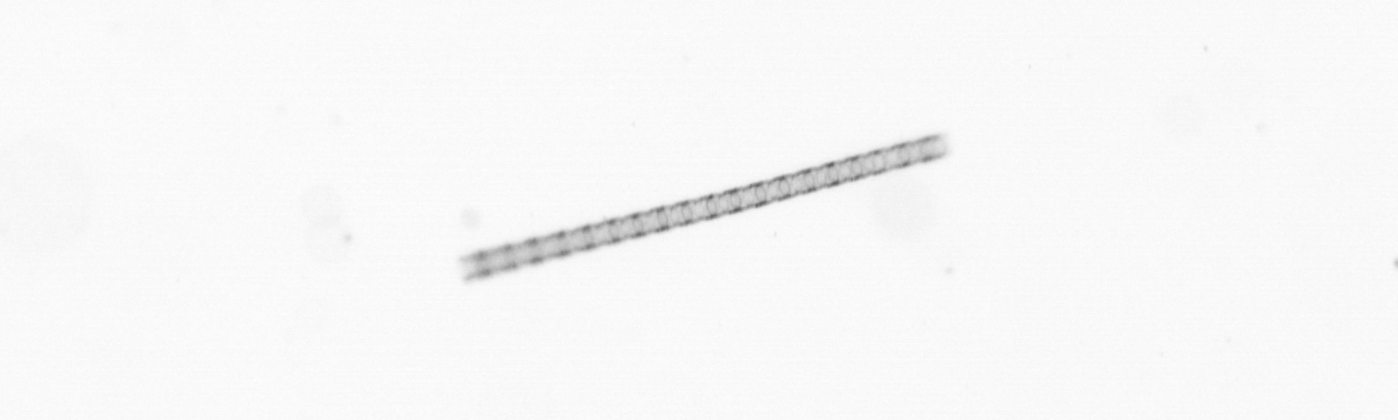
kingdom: Chromista
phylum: Ochrophyta
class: Bacillariophyceae
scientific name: Bacillariophyceae
